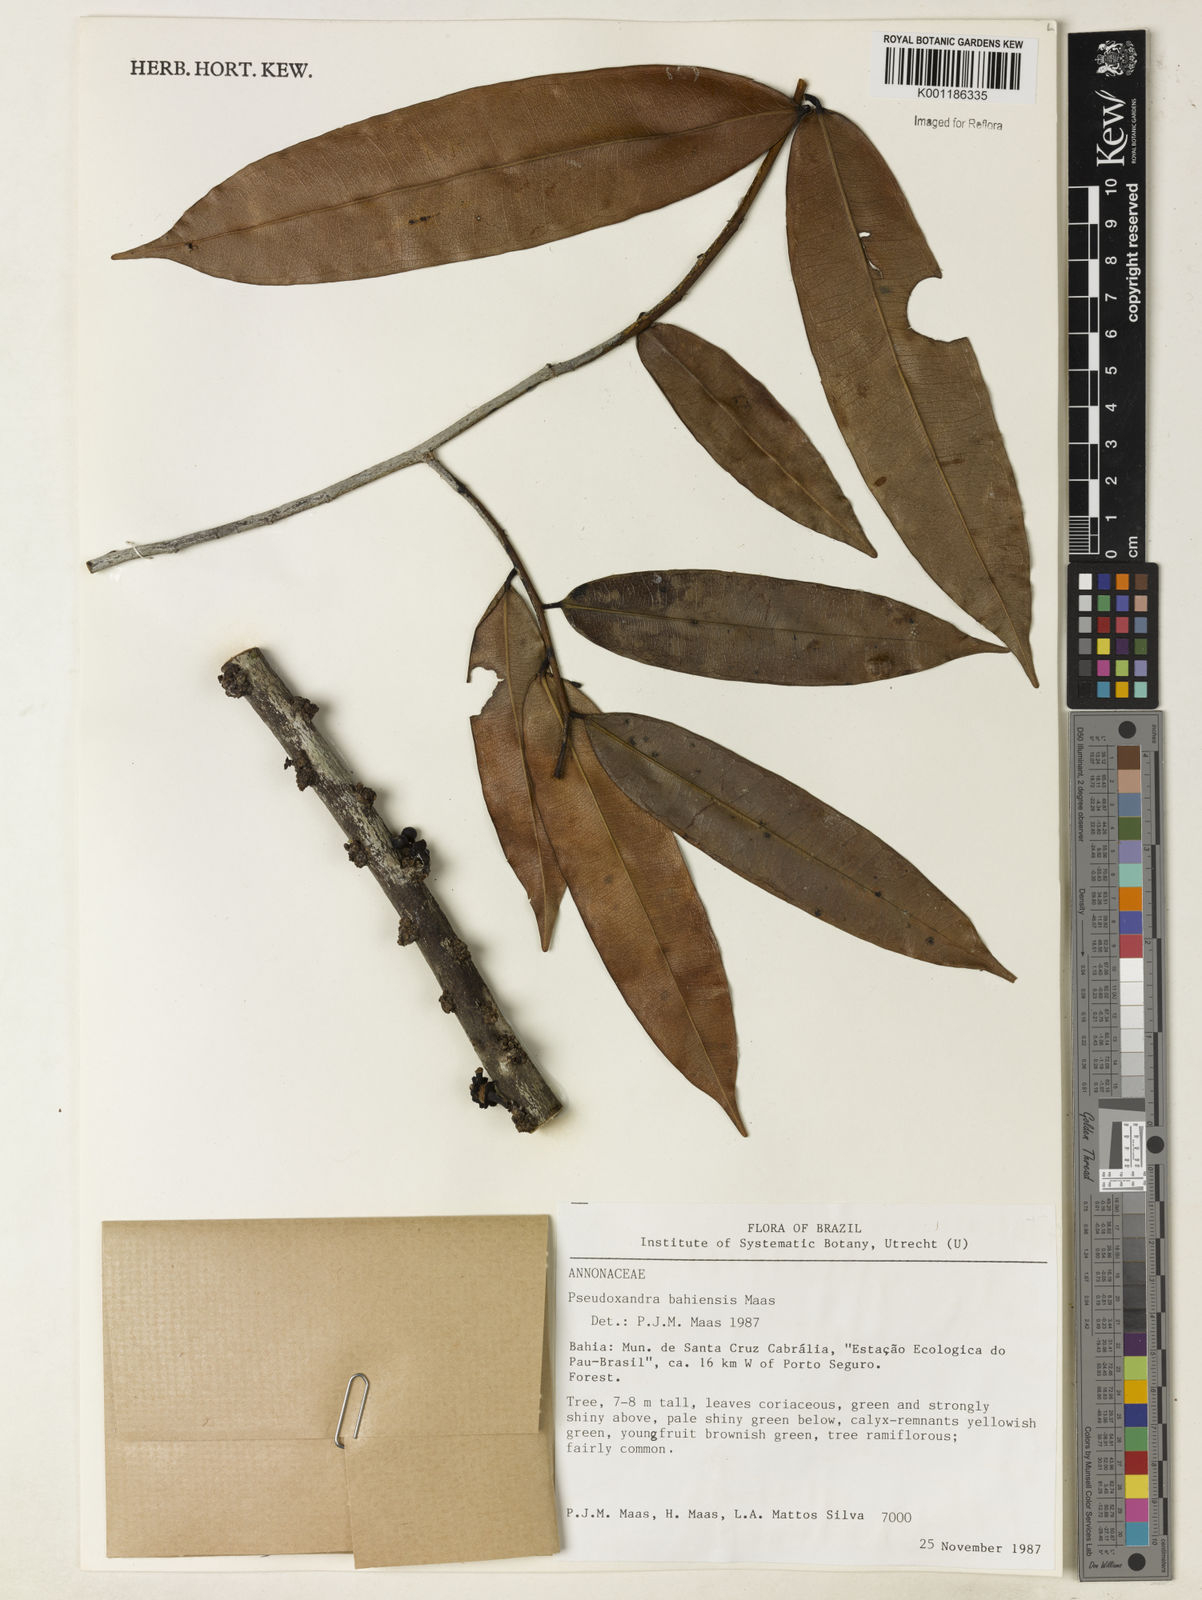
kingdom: Plantae
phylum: Tracheophyta
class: Magnoliopsida
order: Magnoliales
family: Annonaceae
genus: Pseudoxandra
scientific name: Pseudoxandra bahiensis
